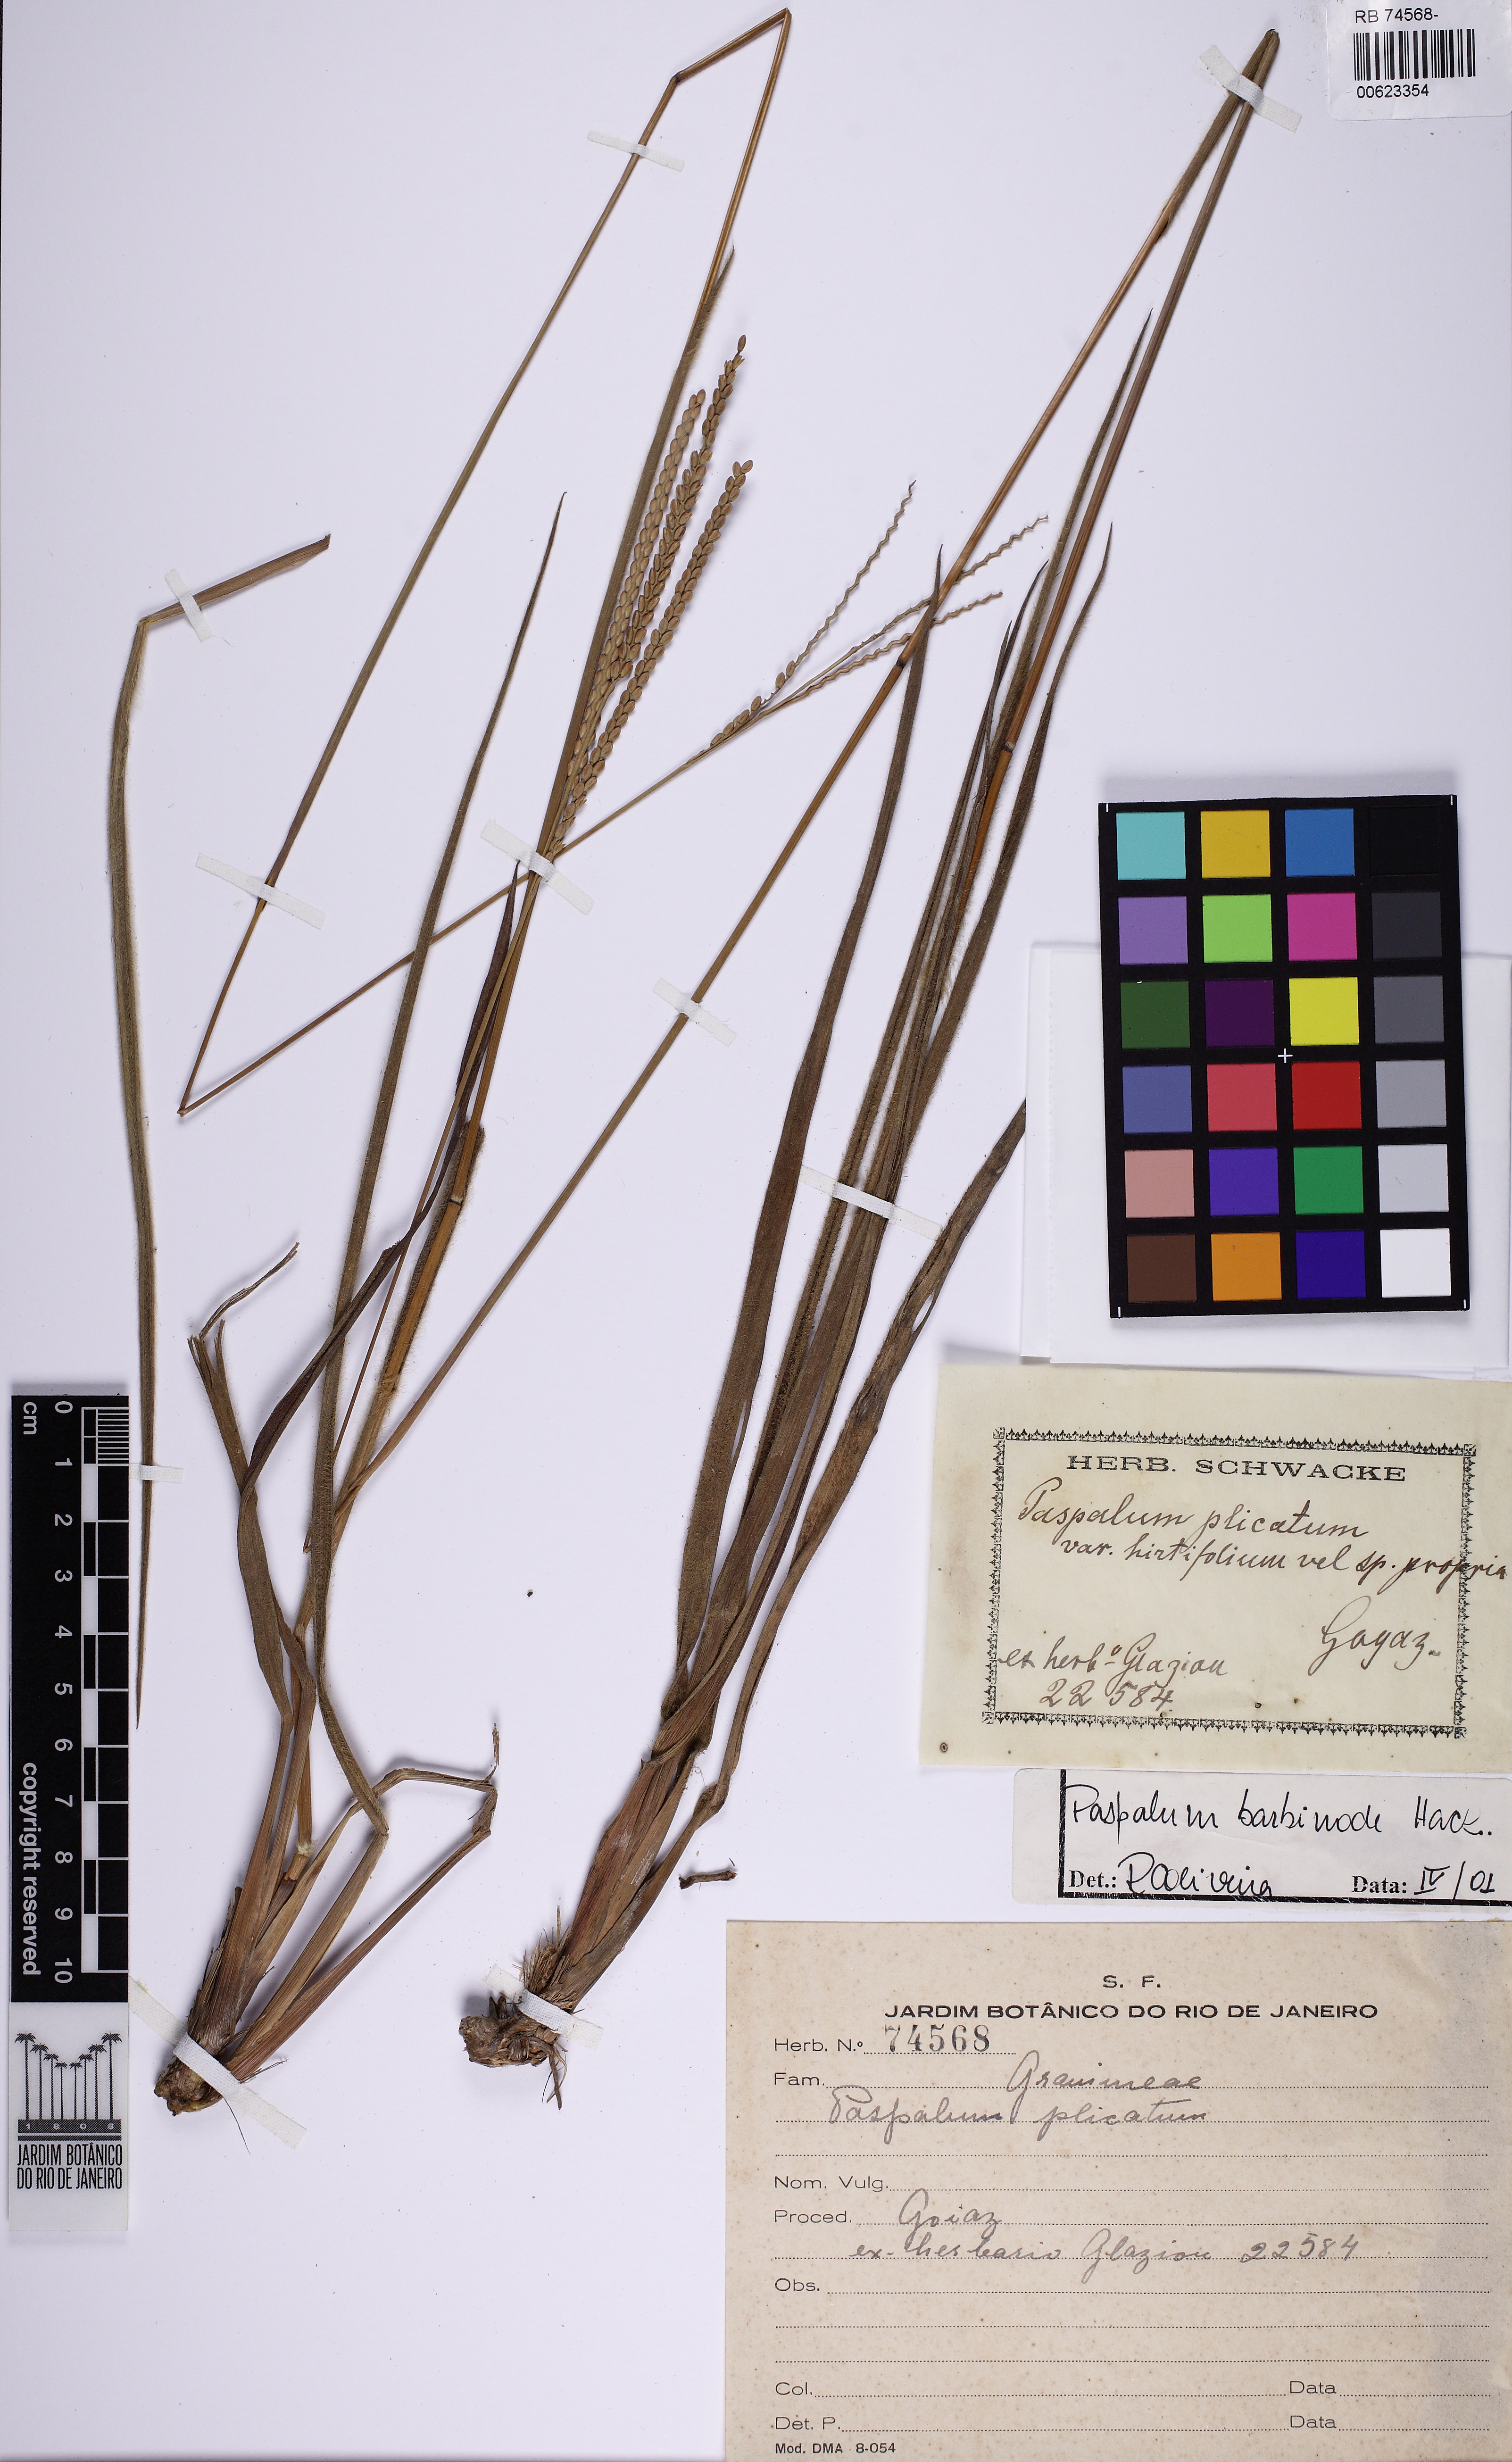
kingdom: Plantae
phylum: Tracheophyta
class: Liliopsida
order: Poales
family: Poaceae
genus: Paspalum
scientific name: Paspalum barbinode
